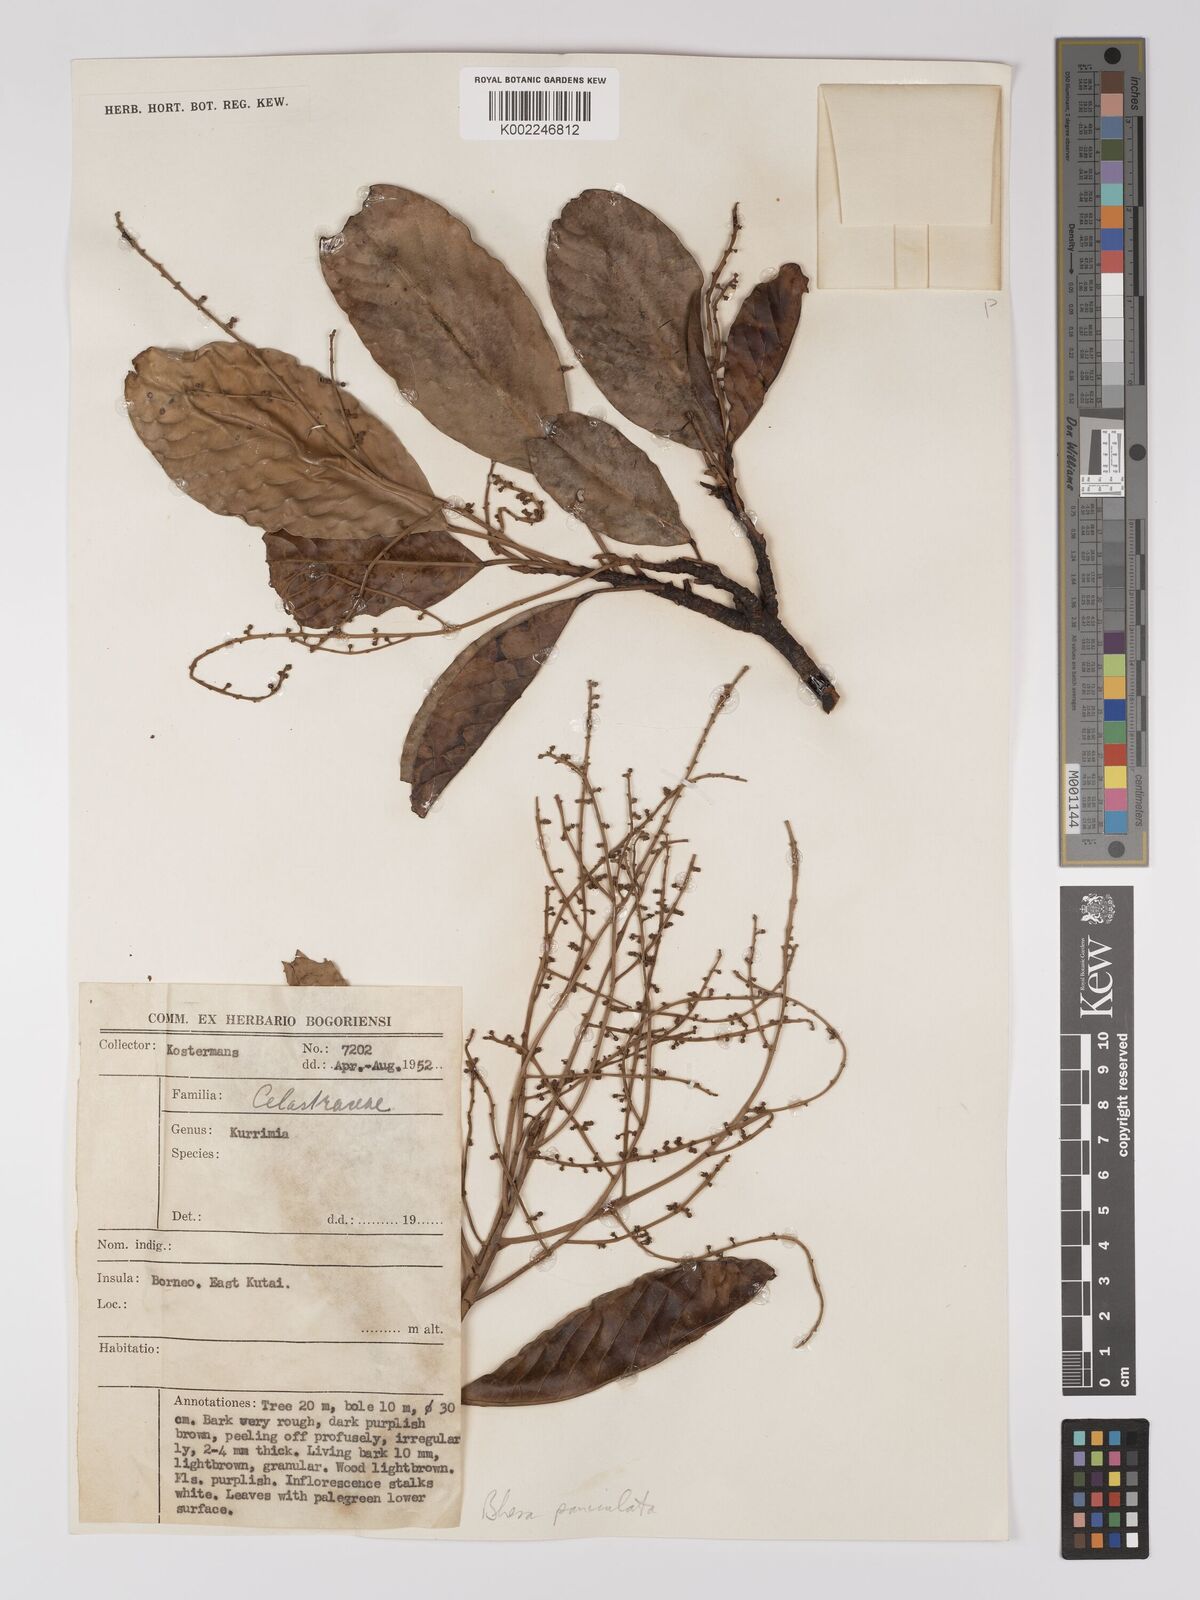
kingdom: Plantae
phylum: Tracheophyta
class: Magnoliopsida
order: Malpighiales
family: Centroplacaceae
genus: Bhesa
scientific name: Bhesa paniculata
